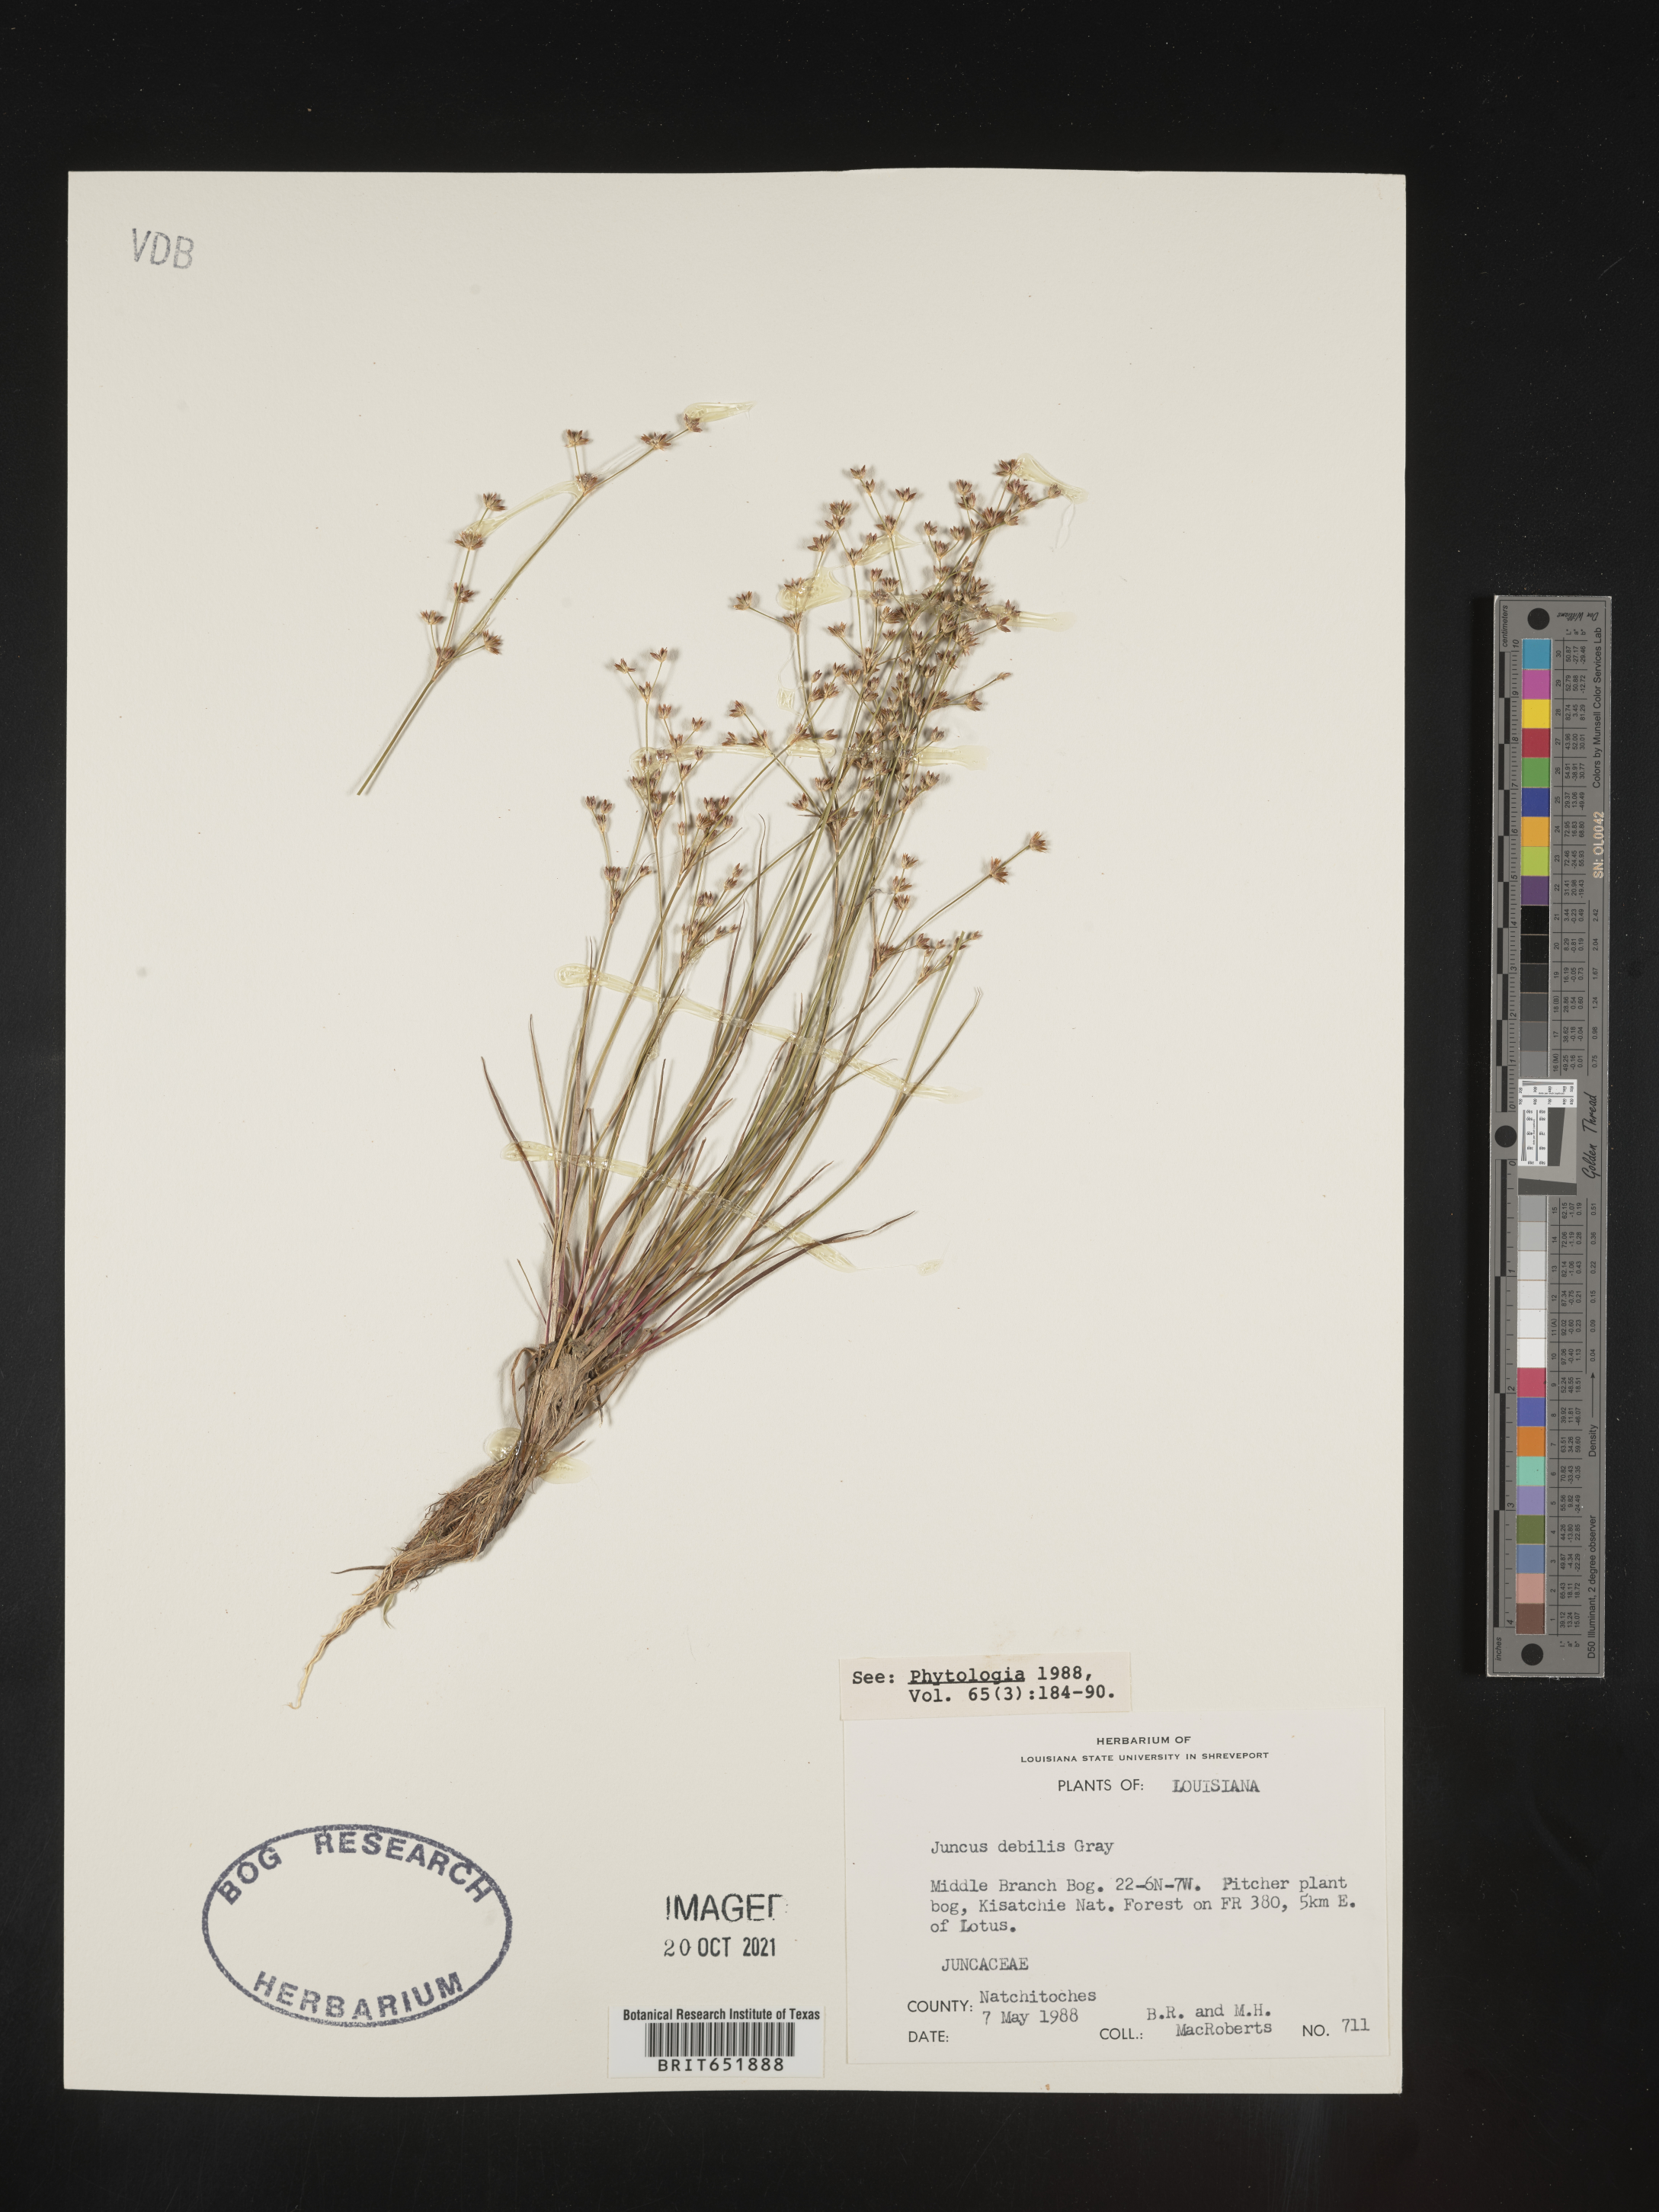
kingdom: Plantae
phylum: Tracheophyta
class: Liliopsida
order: Poales
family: Juncaceae
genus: Juncus
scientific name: Juncus debilis
